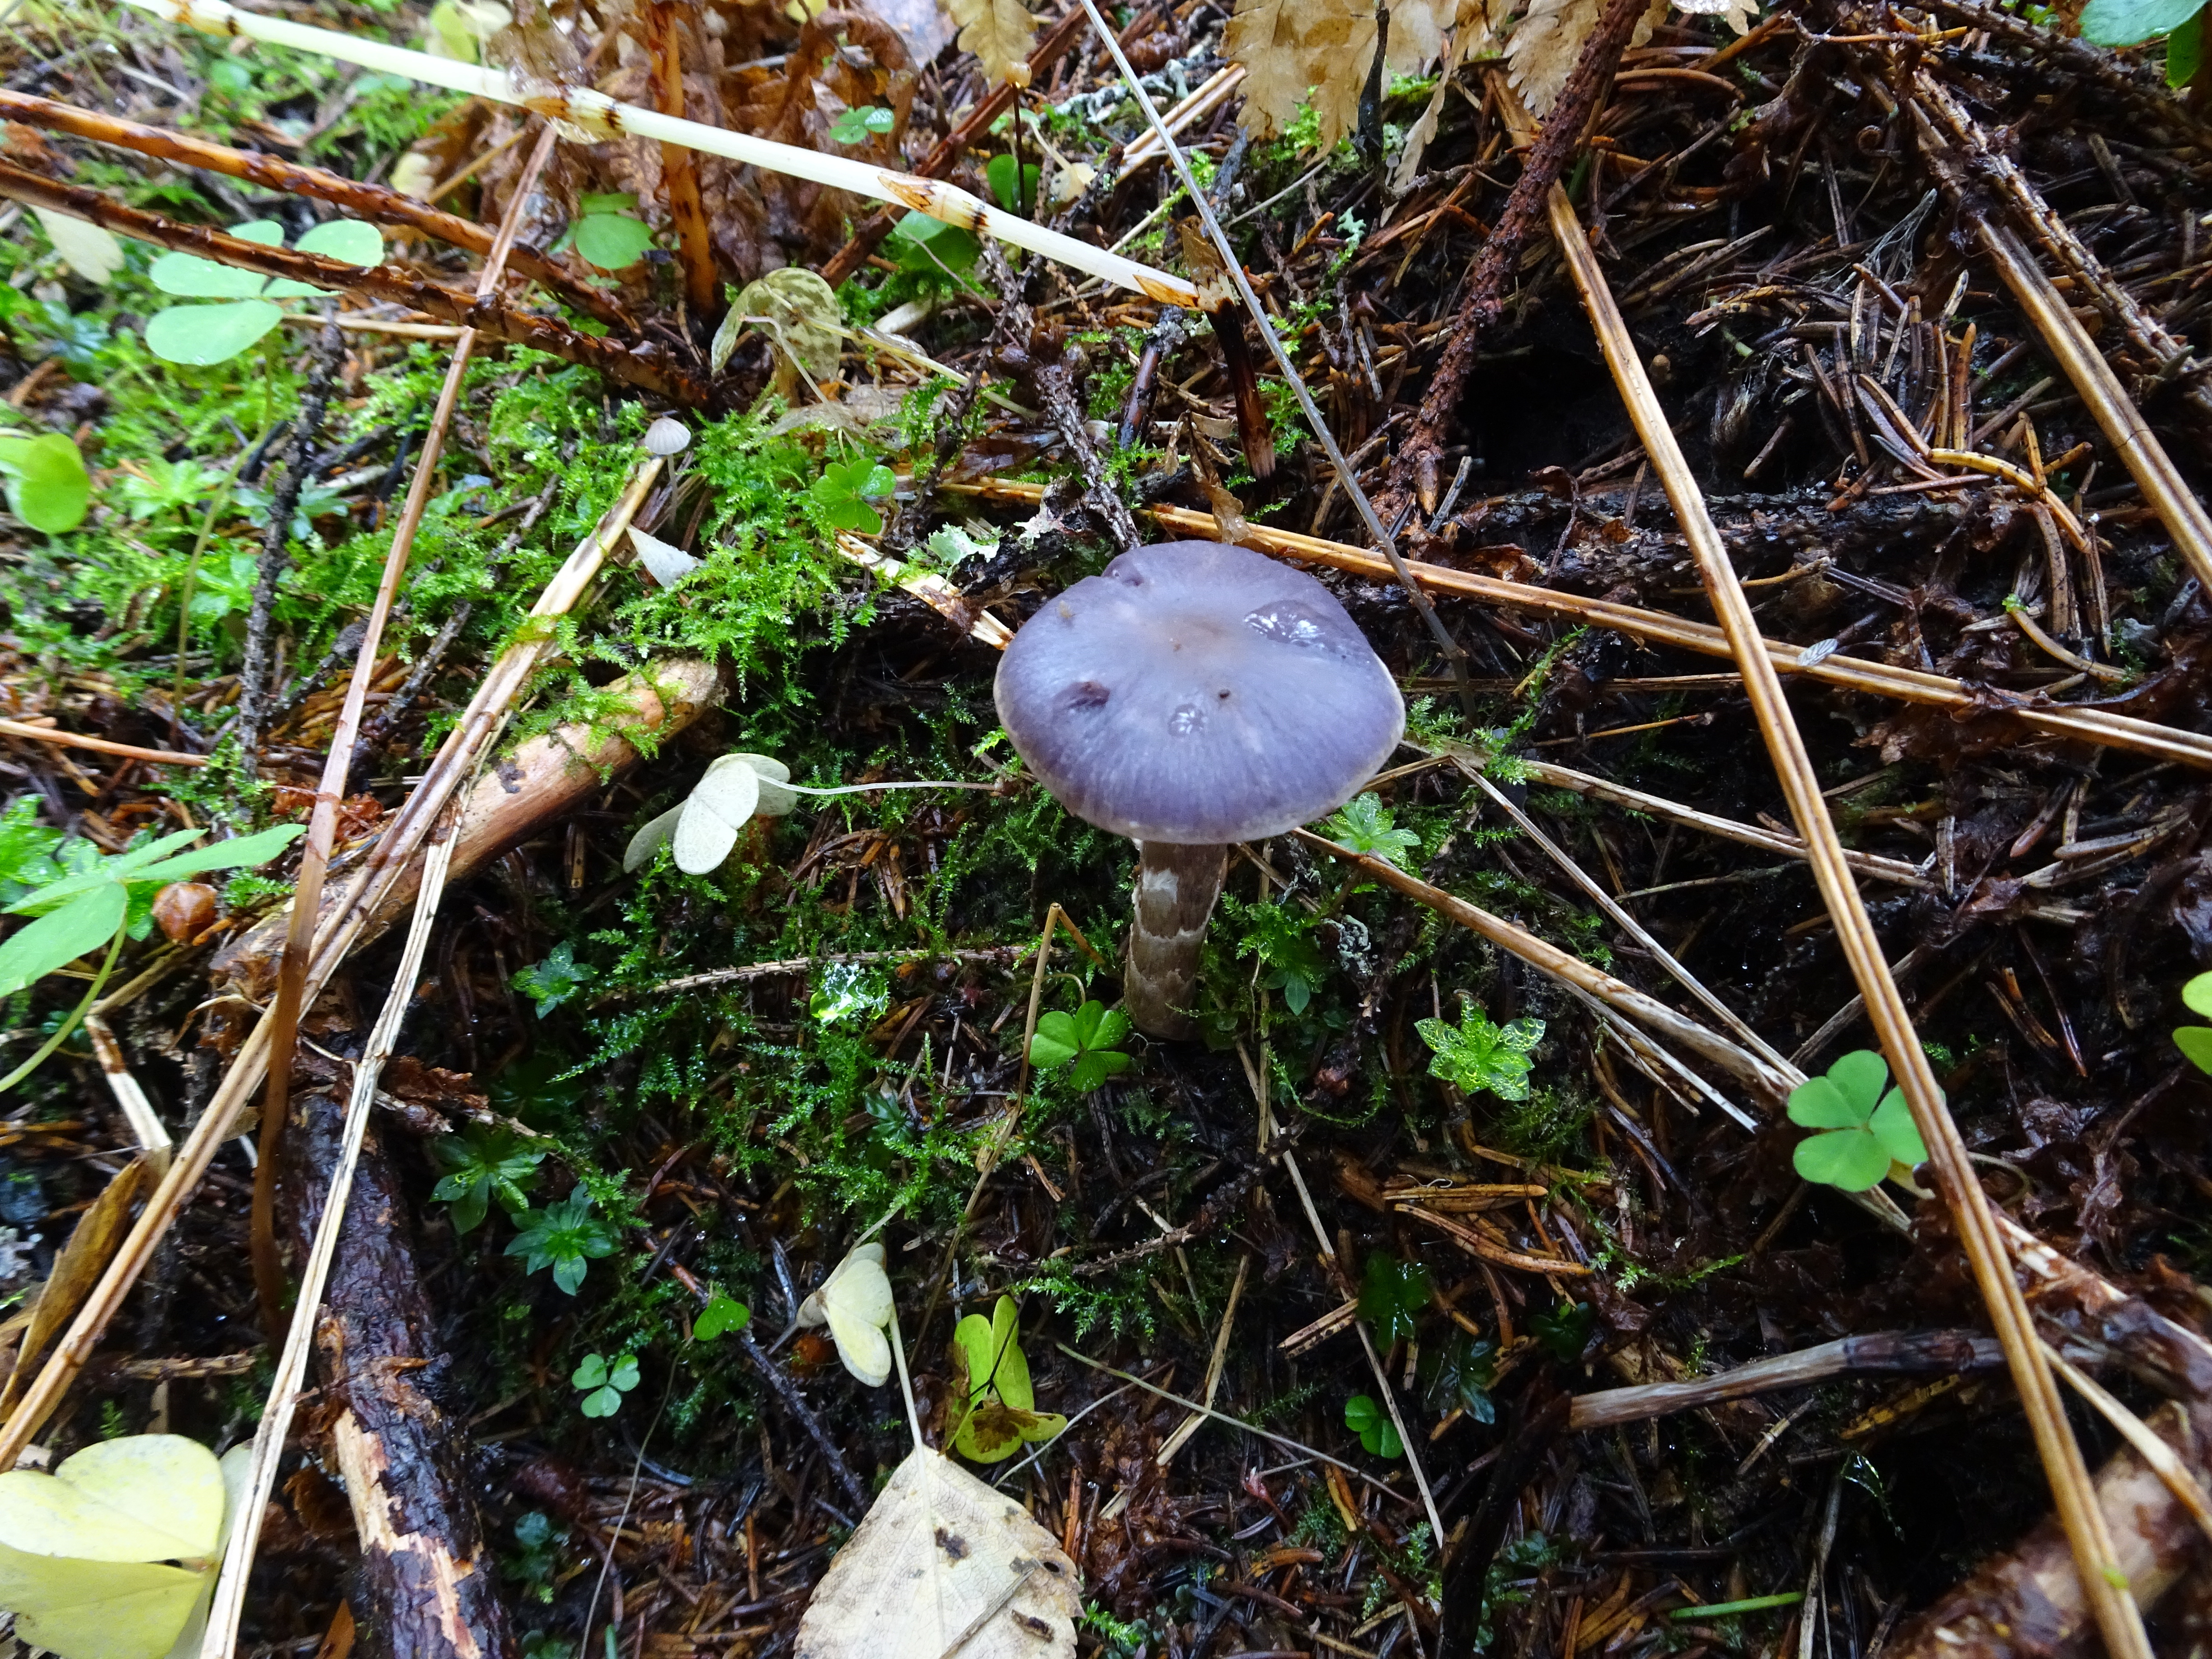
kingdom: Fungi
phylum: Basidiomycota
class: Agaricomycetes
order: Agaricales
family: Cortinariaceae
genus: Cortinarius
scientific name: Cortinarius
